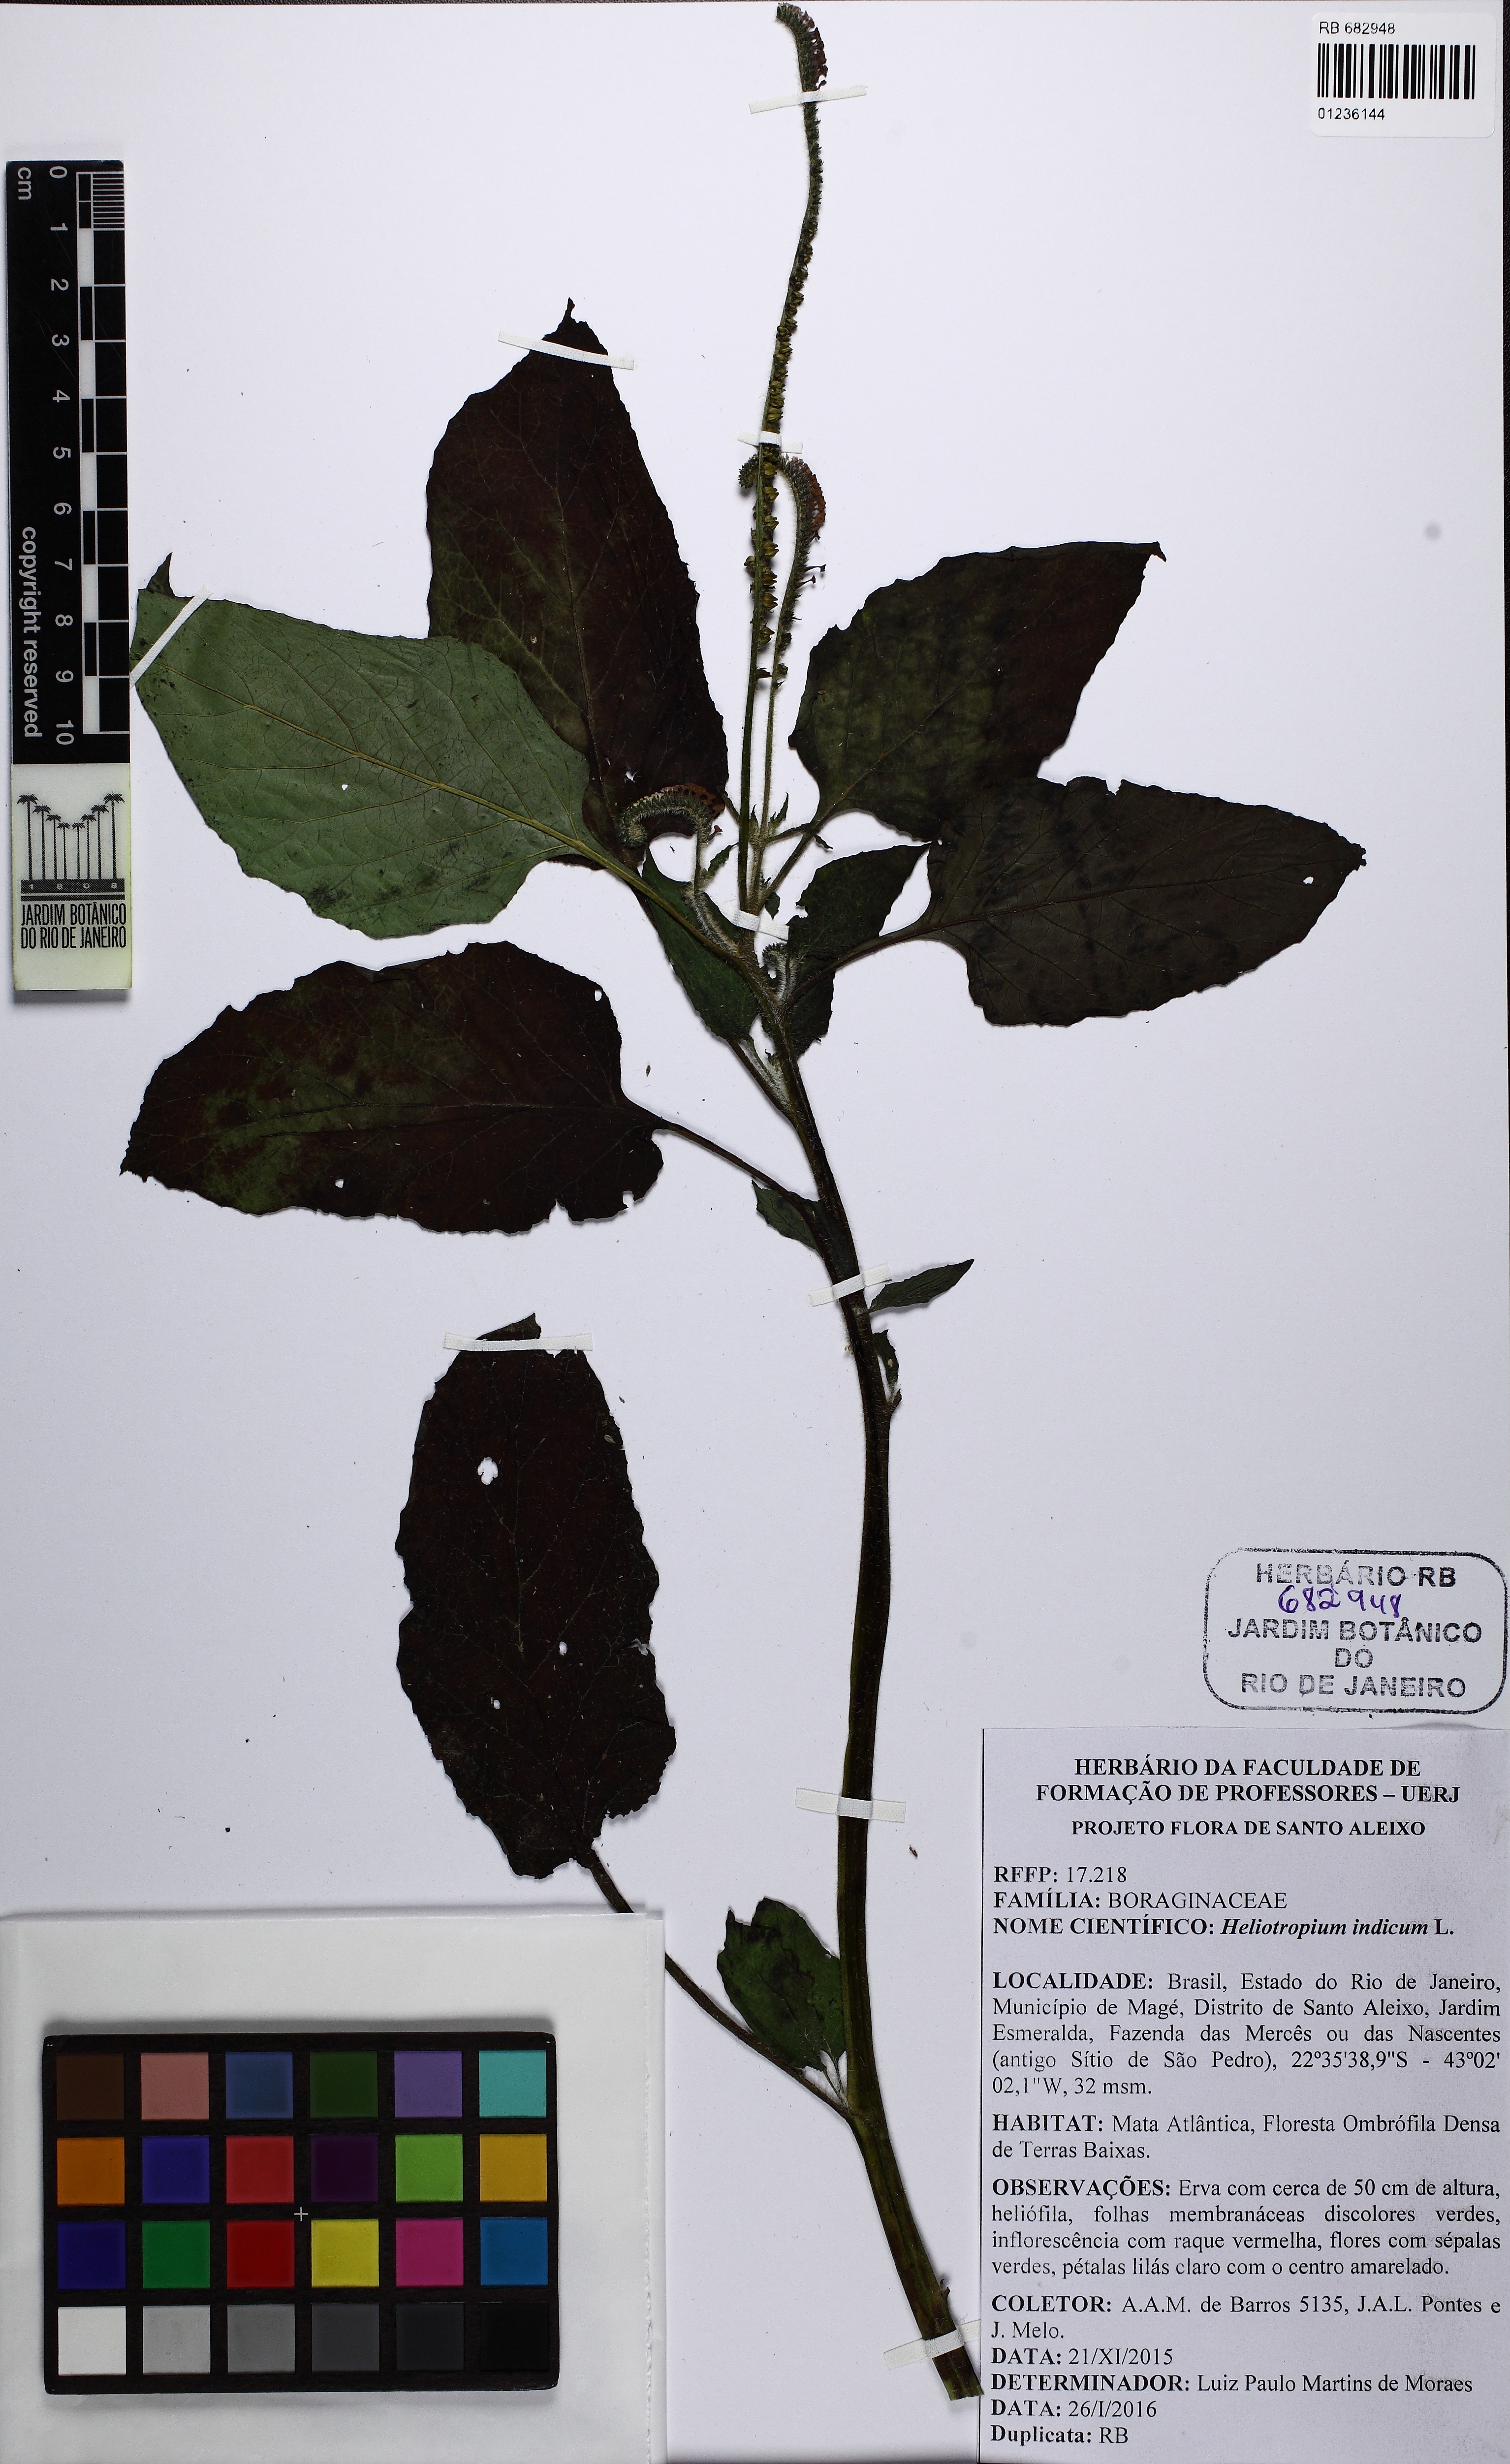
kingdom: Plantae
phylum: Tracheophyta
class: Magnoliopsida
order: Boraginales
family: Heliotropiaceae
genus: Heliotropium
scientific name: Heliotropium indicum
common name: Indian heliotrope
